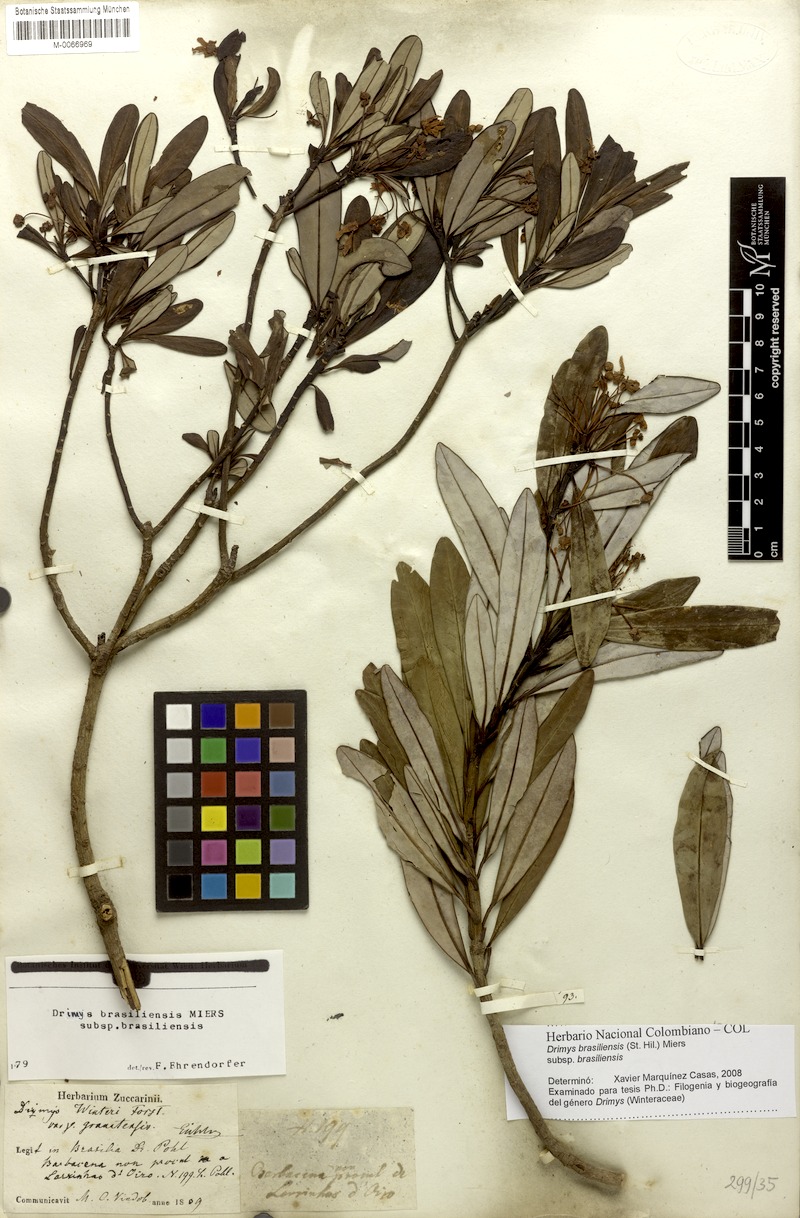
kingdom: Plantae
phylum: Tracheophyta
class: Magnoliopsida
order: Canellales
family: Winteraceae
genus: Drimys
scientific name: Drimys brasiliensis
